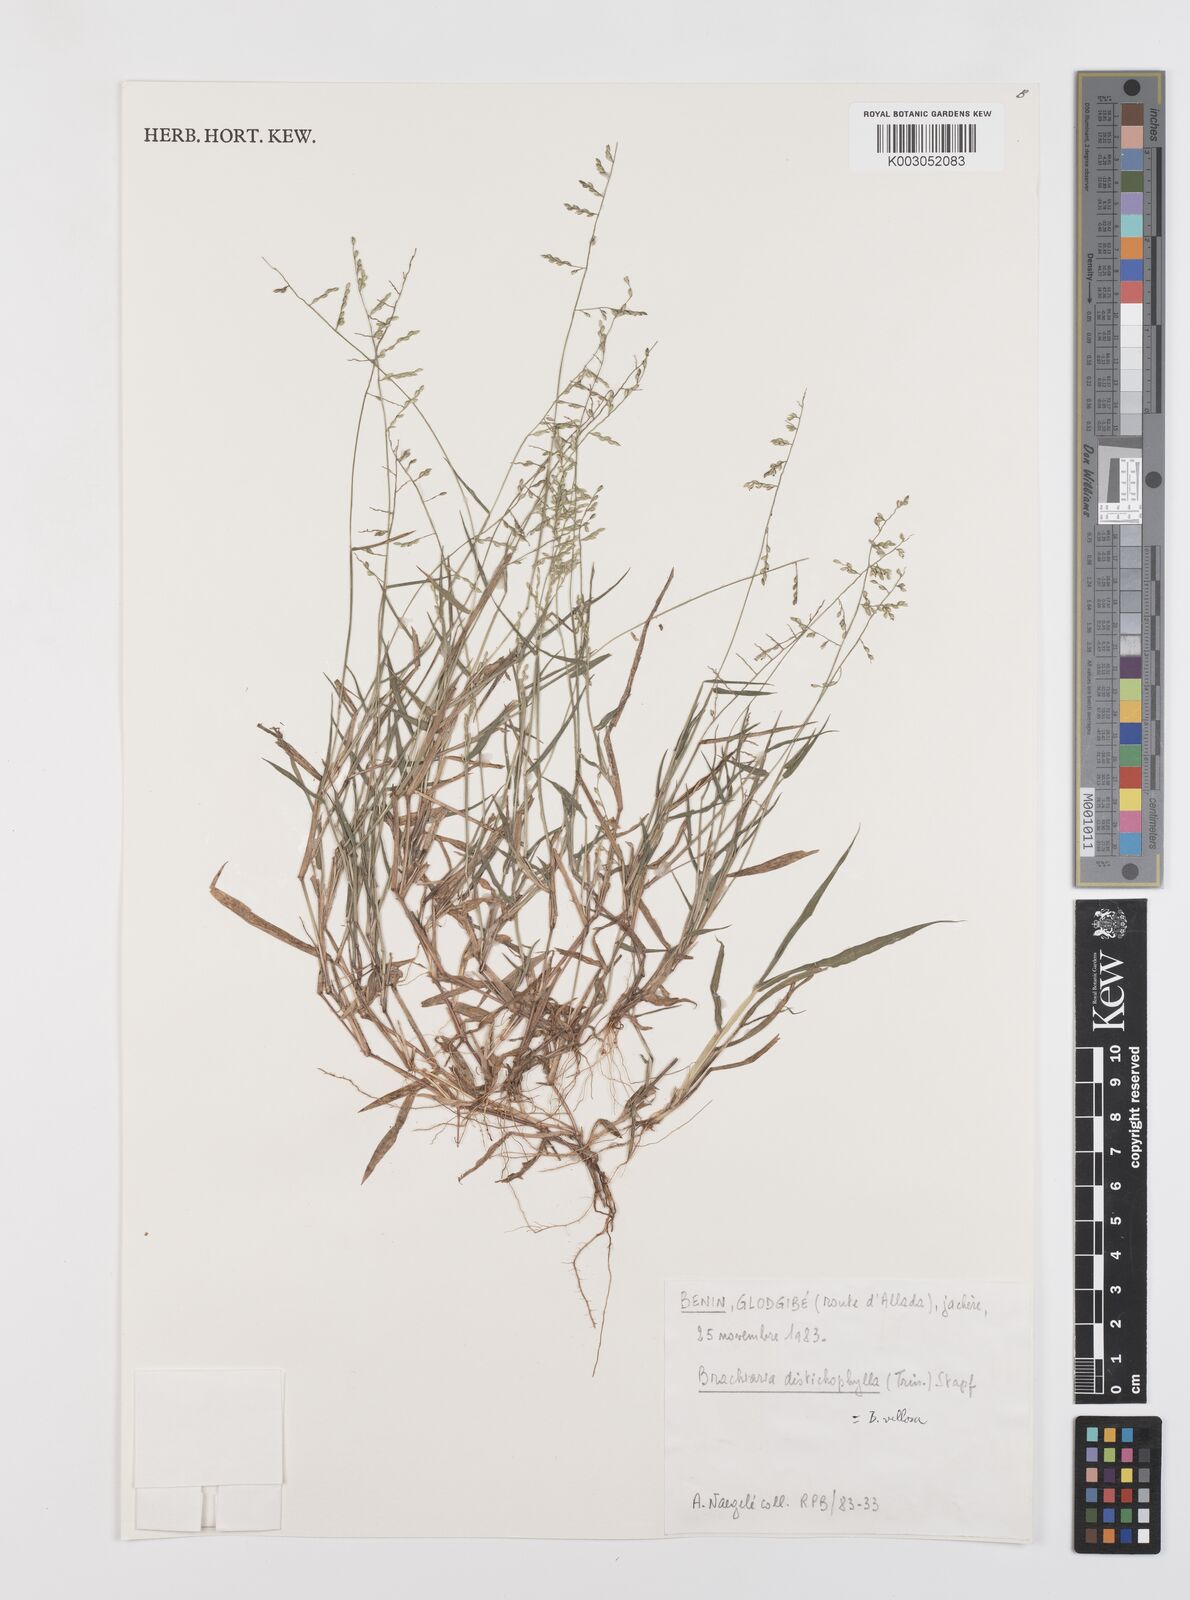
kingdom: Plantae
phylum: Tracheophyta
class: Liliopsida
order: Poales
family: Poaceae
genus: Urochloa
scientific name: Urochloa villosa
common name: Hairy signalgrass
